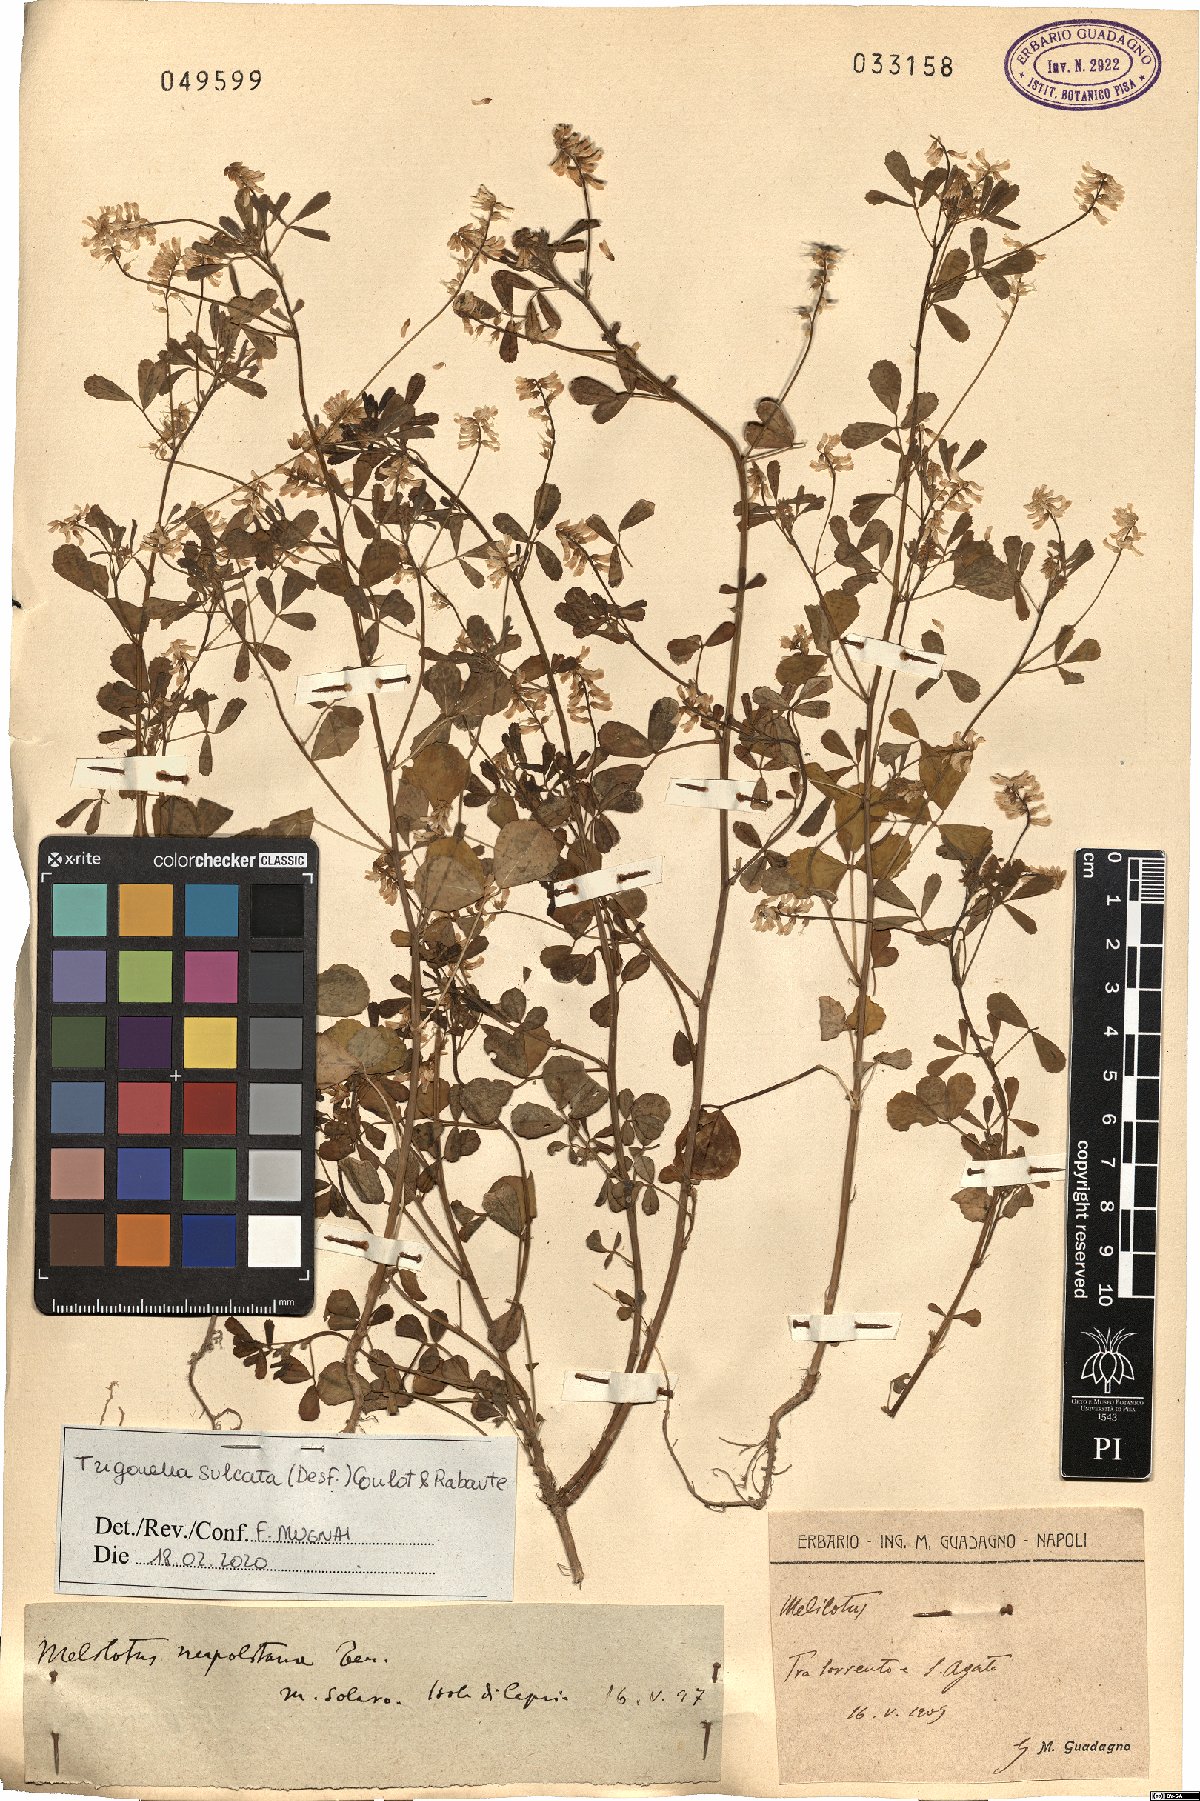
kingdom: Plantae
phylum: Tracheophyta
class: Magnoliopsida
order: Fabales
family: Fabaceae
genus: Melilotus
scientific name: Melilotus sulcatus
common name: Furrowed melilot
